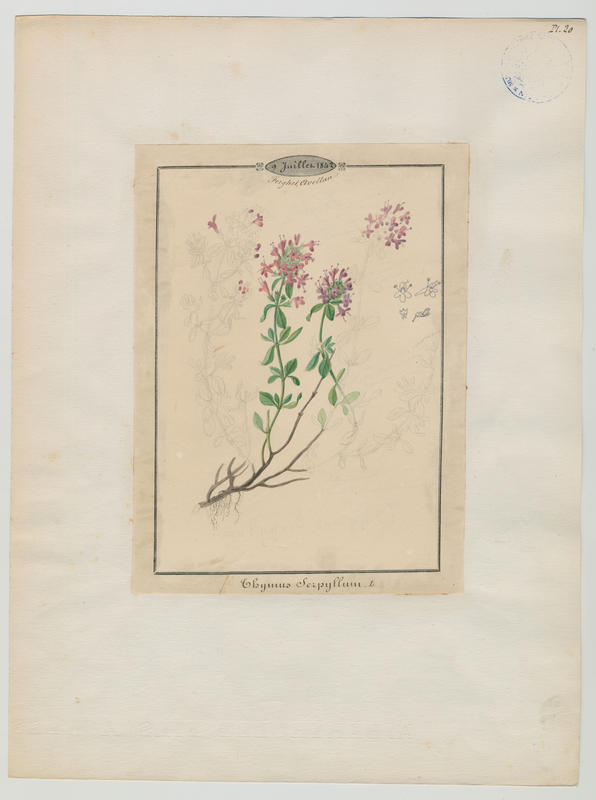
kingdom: Plantae
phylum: Tracheophyta
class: Magnoliopsida
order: Lamiales
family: Lamiaceae
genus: Thymus
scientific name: Thymus
